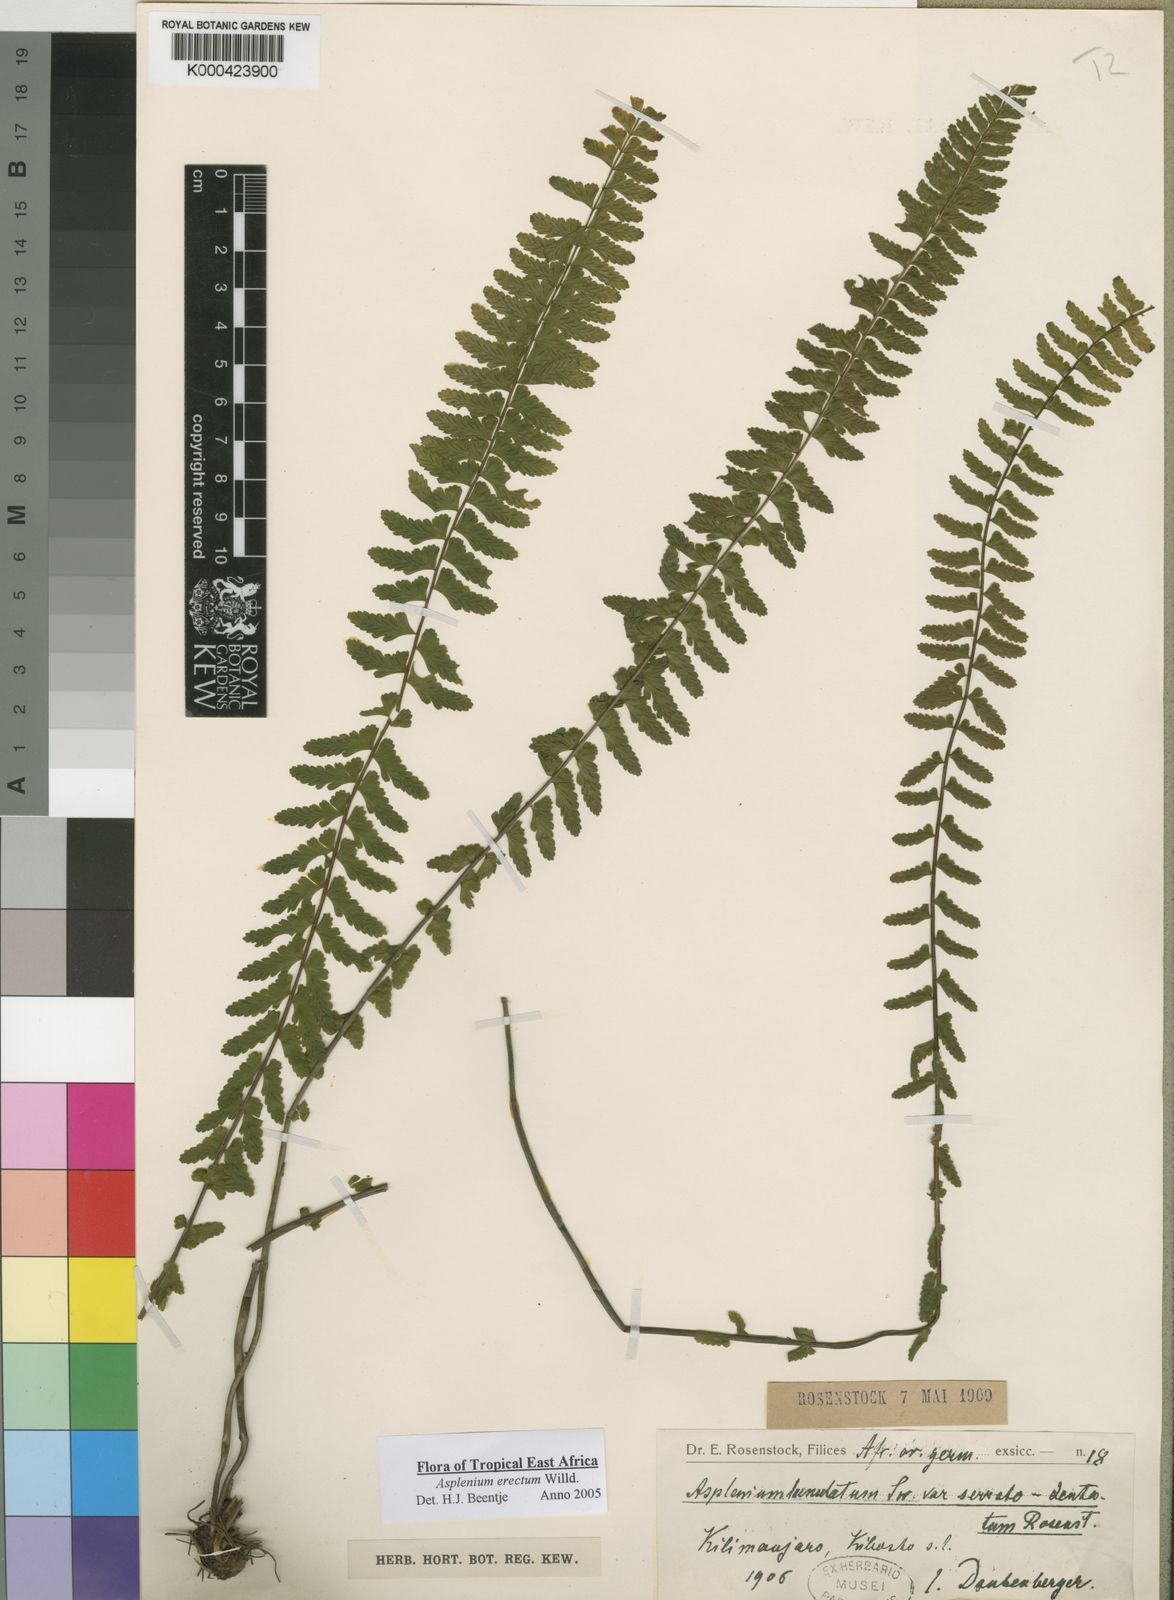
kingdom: Plantae
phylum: Tracheophyta
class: Polypodiopsida
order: Polypodiales
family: Aspleniaceae
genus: Asplenium
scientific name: Asplenium erectum
